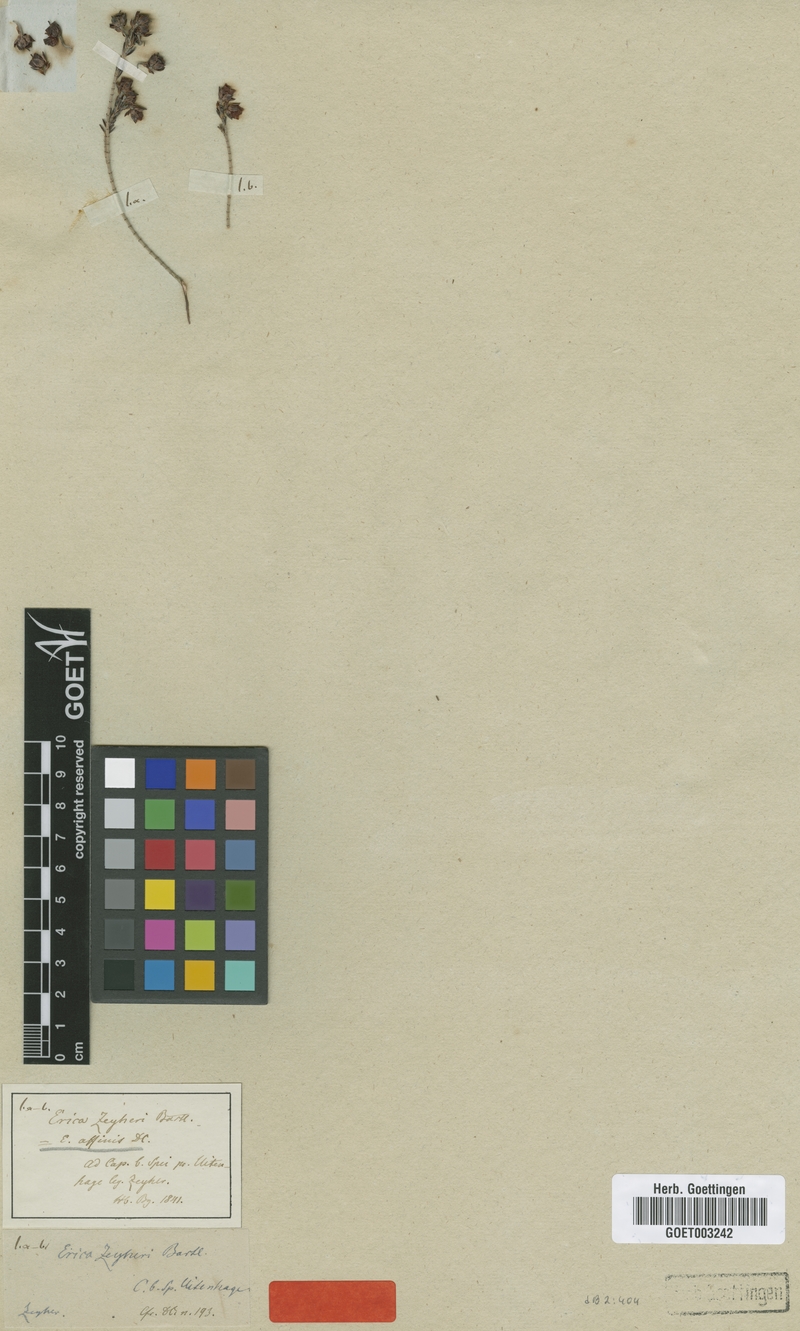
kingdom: Plantae
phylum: Tracheophyta
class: Magnoliopsida
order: Ericales
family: Ericaceae
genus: Erica
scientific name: Erica affinis
